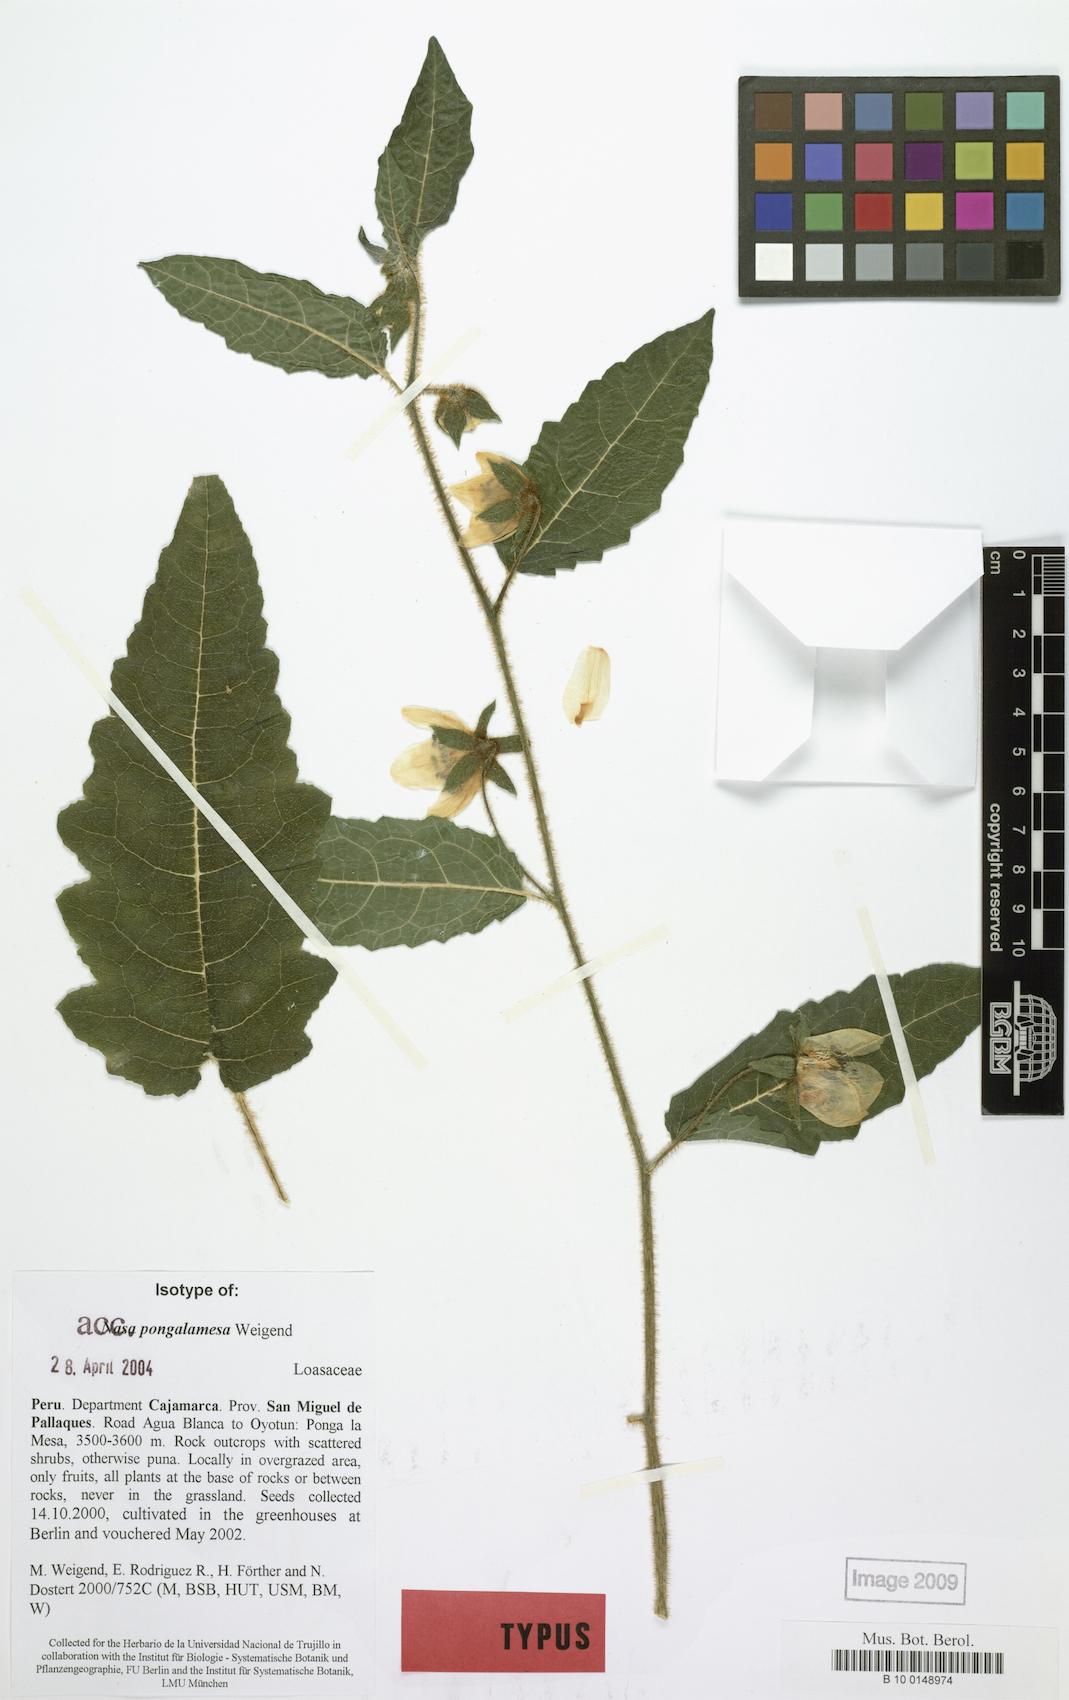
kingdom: Plantae
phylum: Tracheophyta
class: Magnoliopsida
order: Cornales
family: Loasaceae
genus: Nasa
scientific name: Nasa pongalamesa
